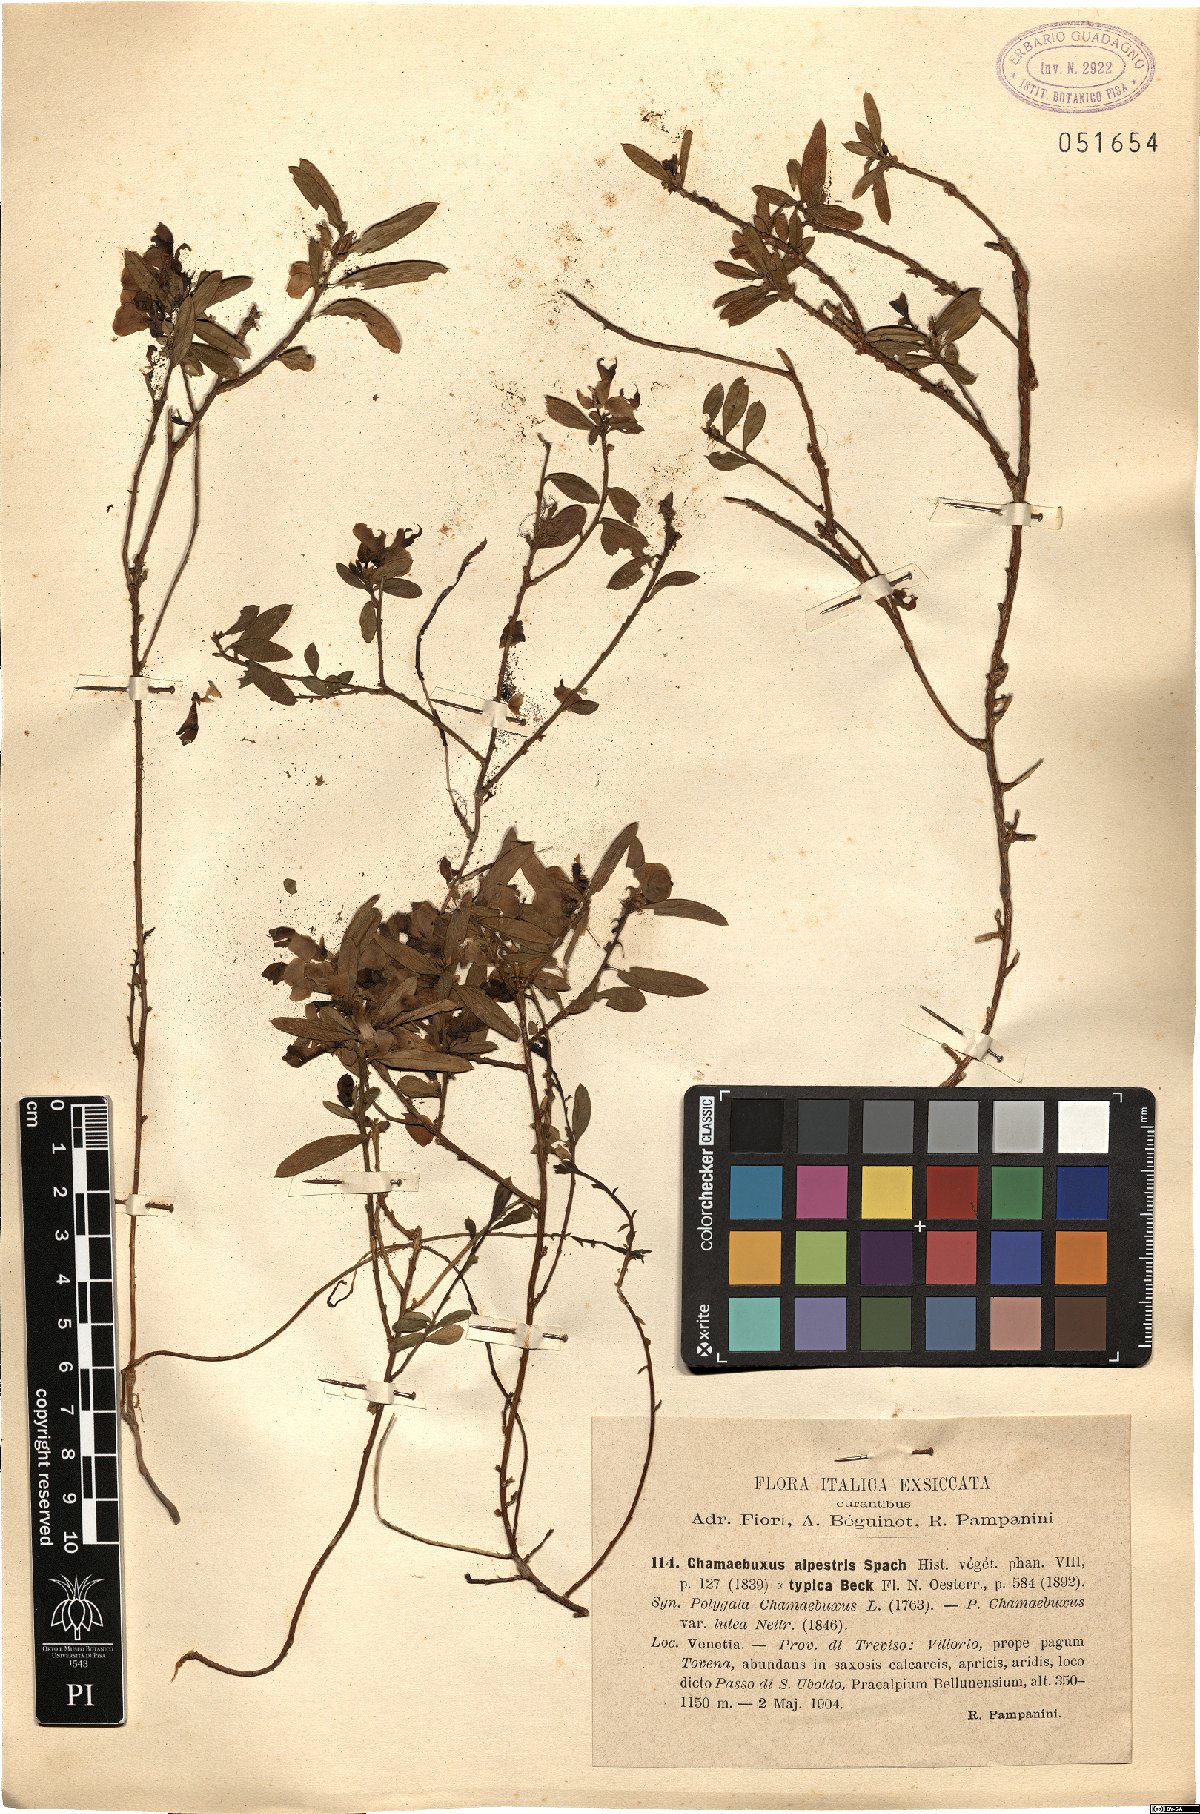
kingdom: Plantae
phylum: Tracheophyta
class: Magnoliopsida
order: Fabales
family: Polygalaceae
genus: Polygaloides
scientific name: Polygaloides chamaebuxus
